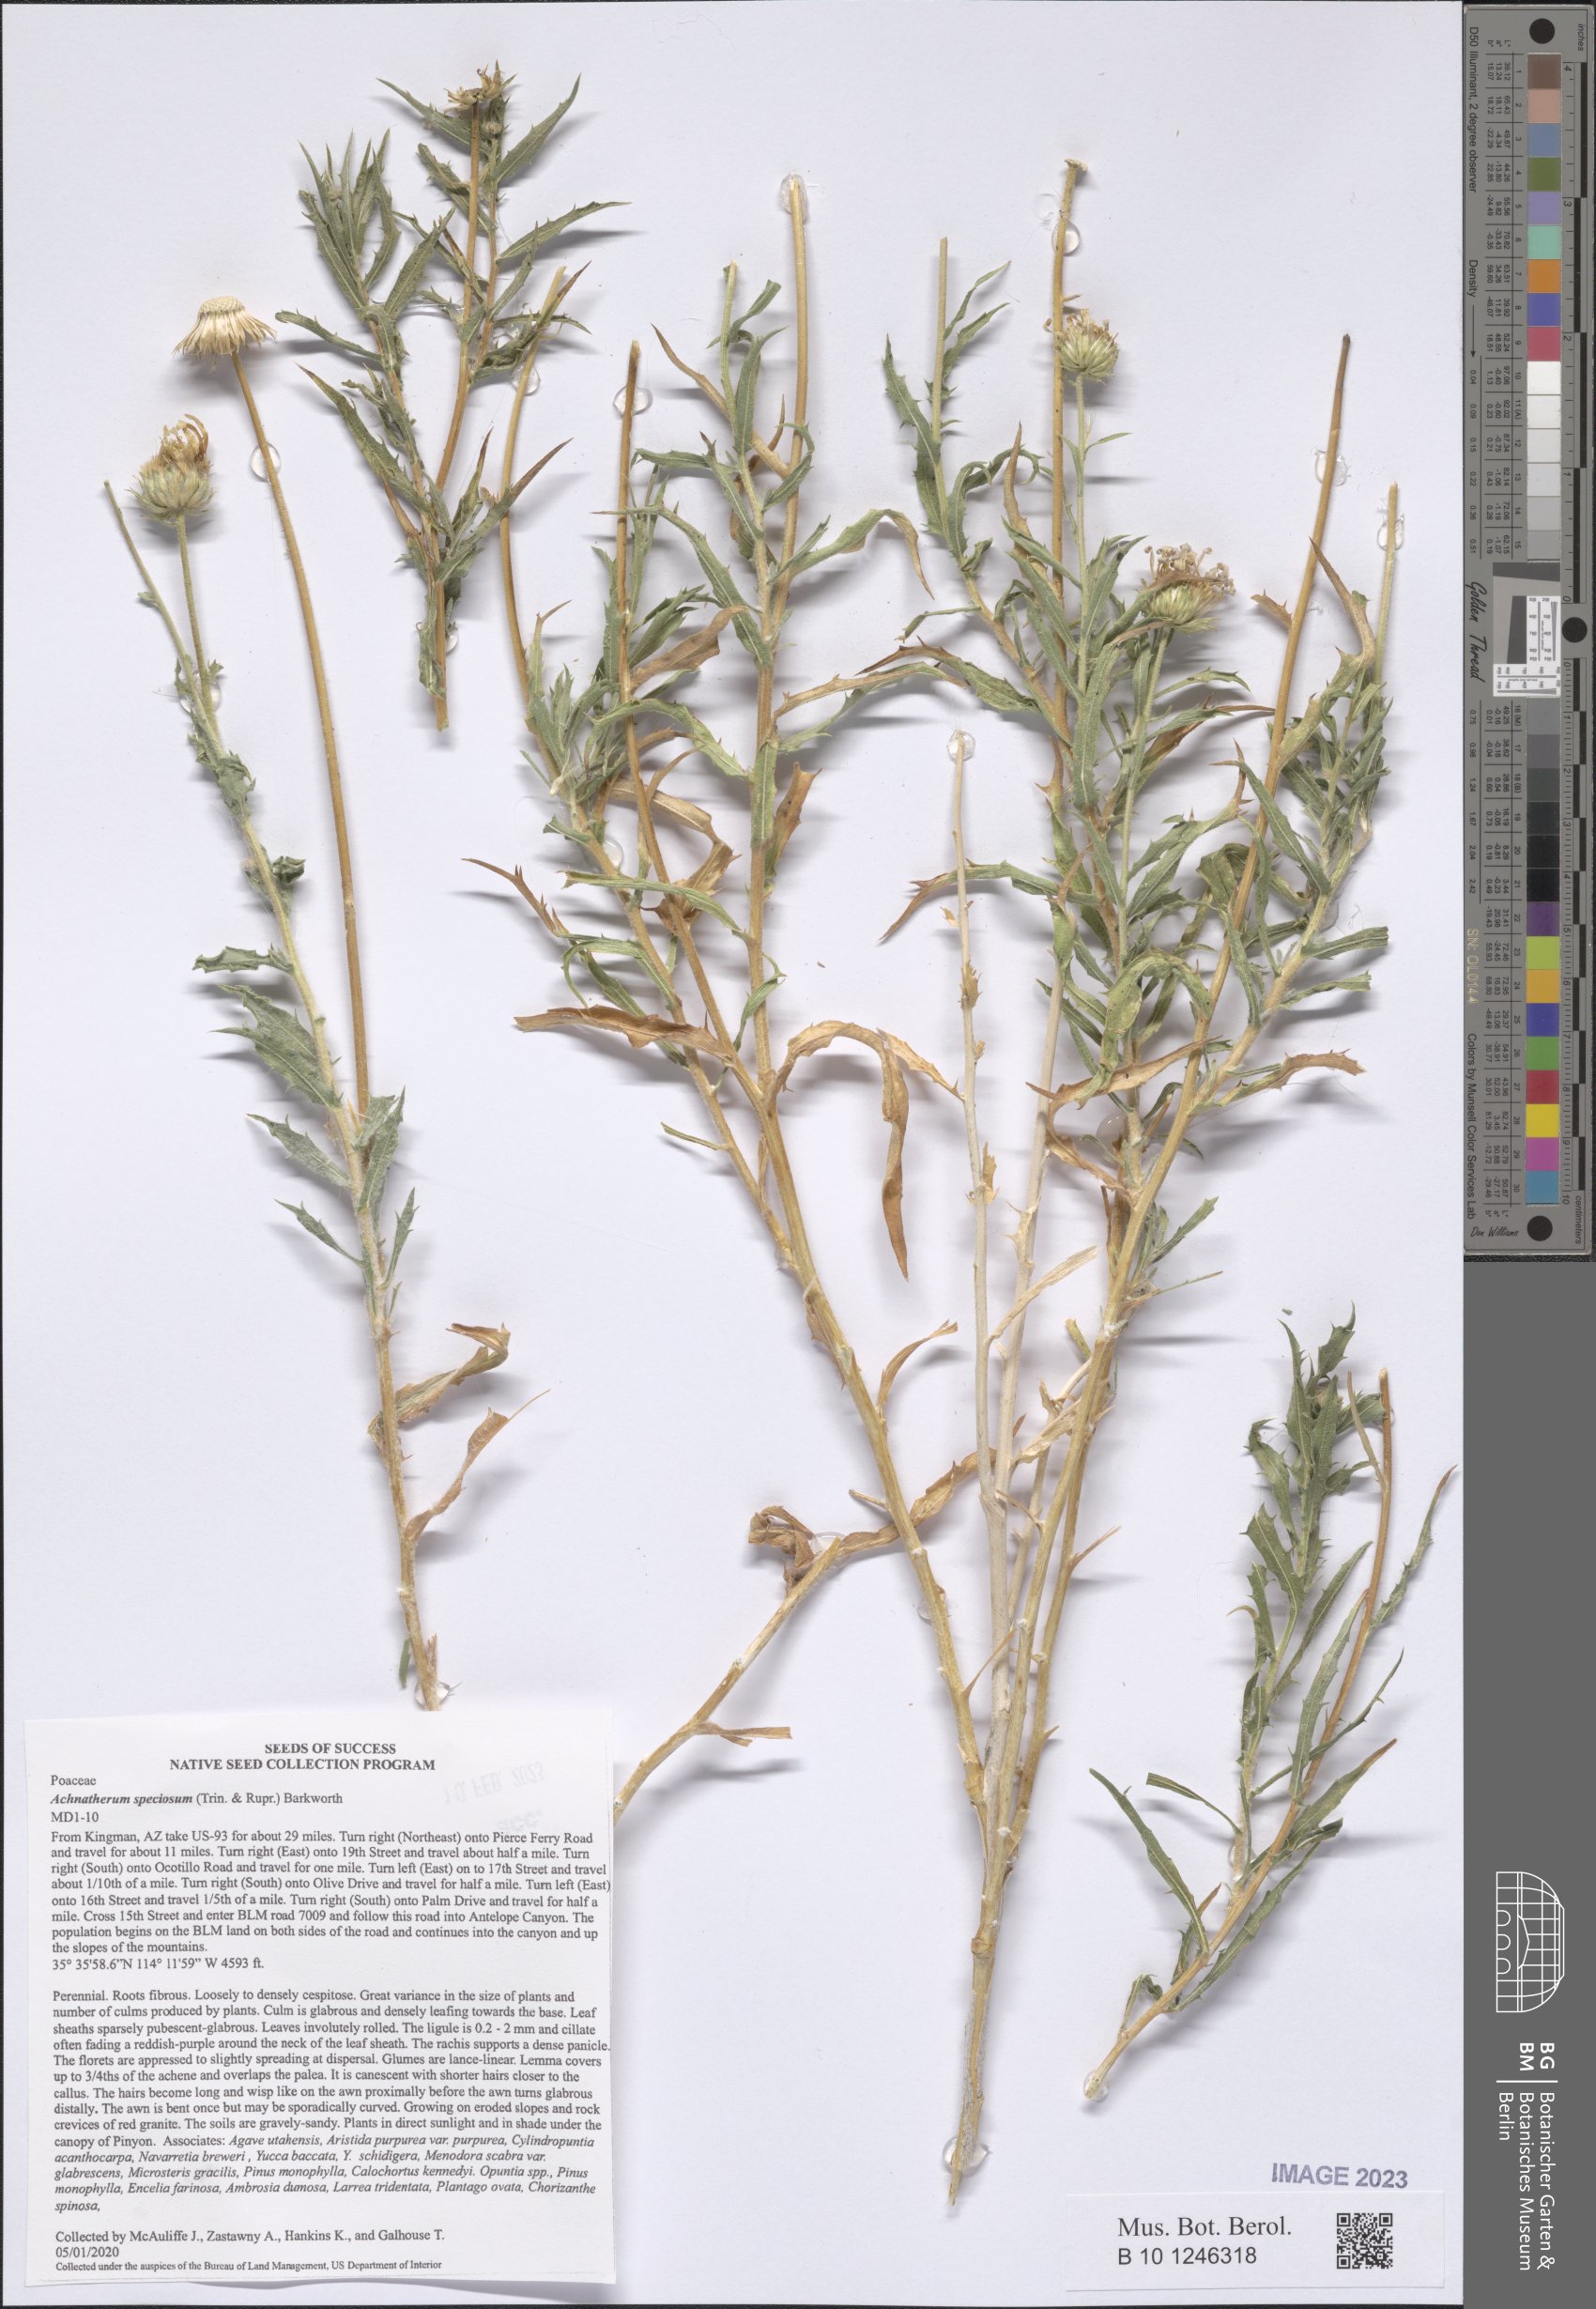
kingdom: Plantae
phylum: Tracheophyta
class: Magnoliopsida
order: Asterales
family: Asteraceae
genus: Xylorhiza
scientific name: Xylorhiza tortifolia
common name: Hurt-leaf woody-aster
